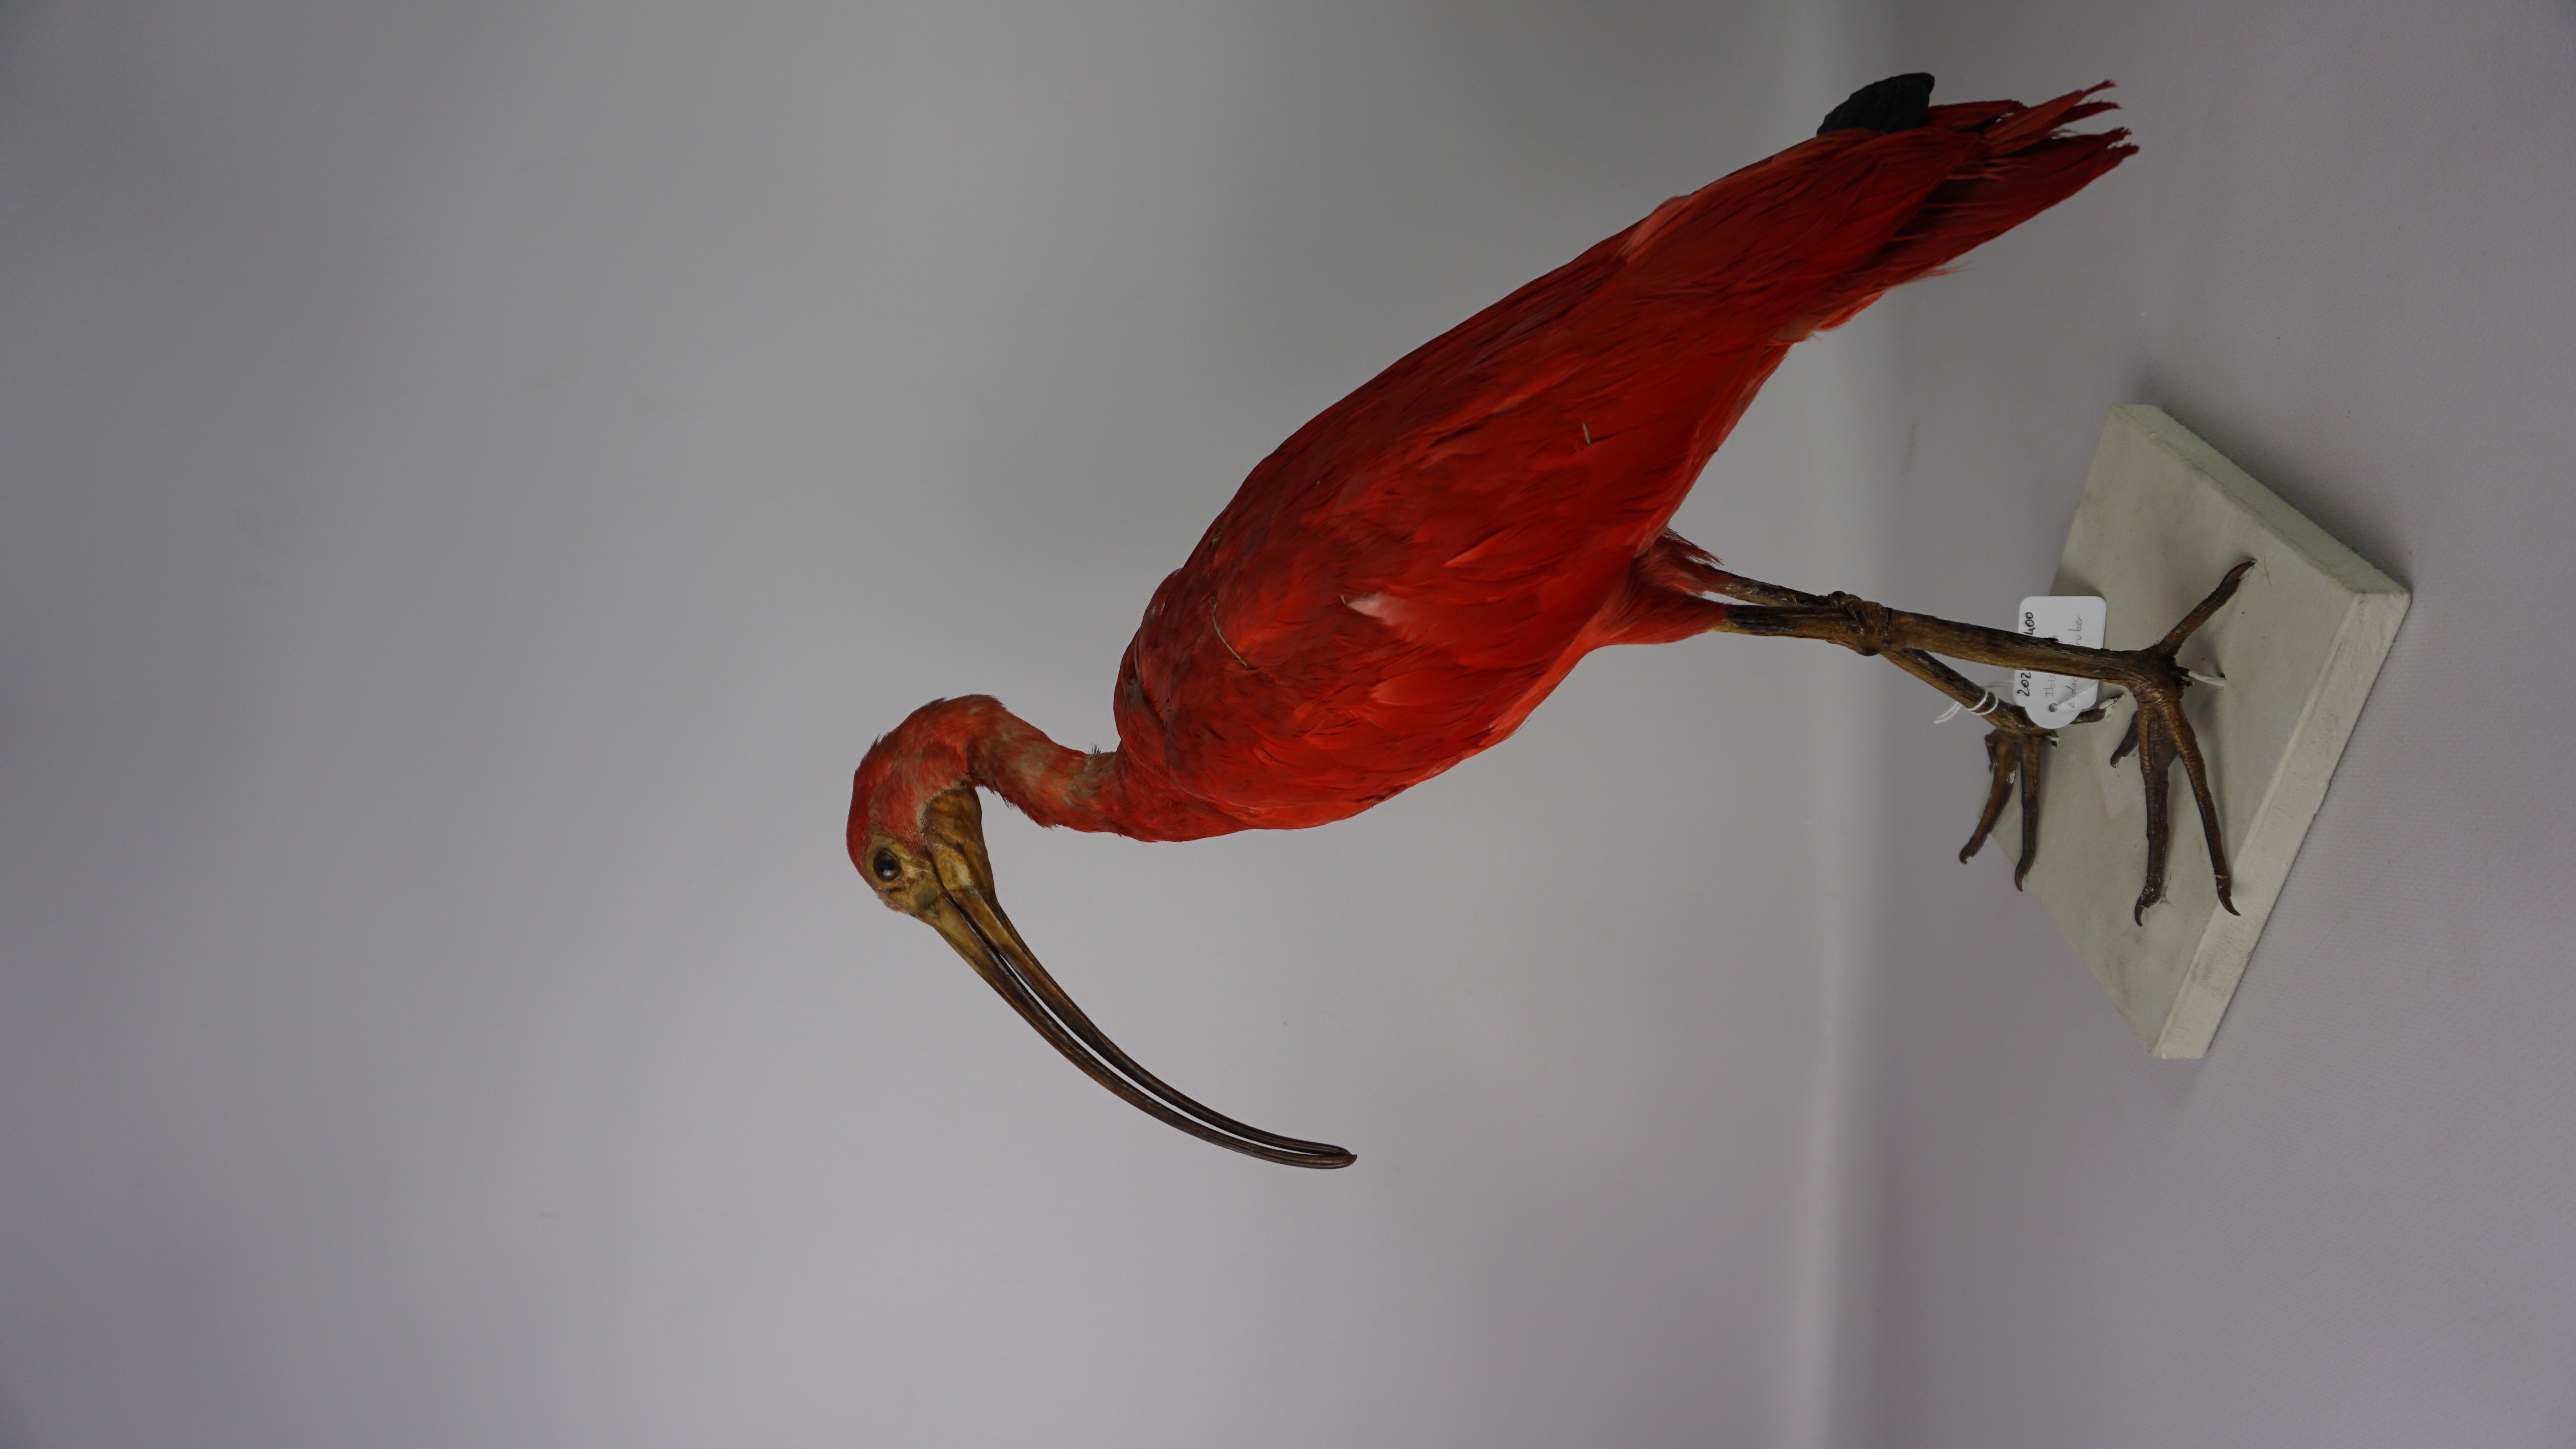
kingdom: Animalia
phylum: Chordata
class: Aves
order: Pelecaniformes
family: Threskiornithidae
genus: Eudocimus
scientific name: Eudocimus ruber
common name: Scarlet ibis
